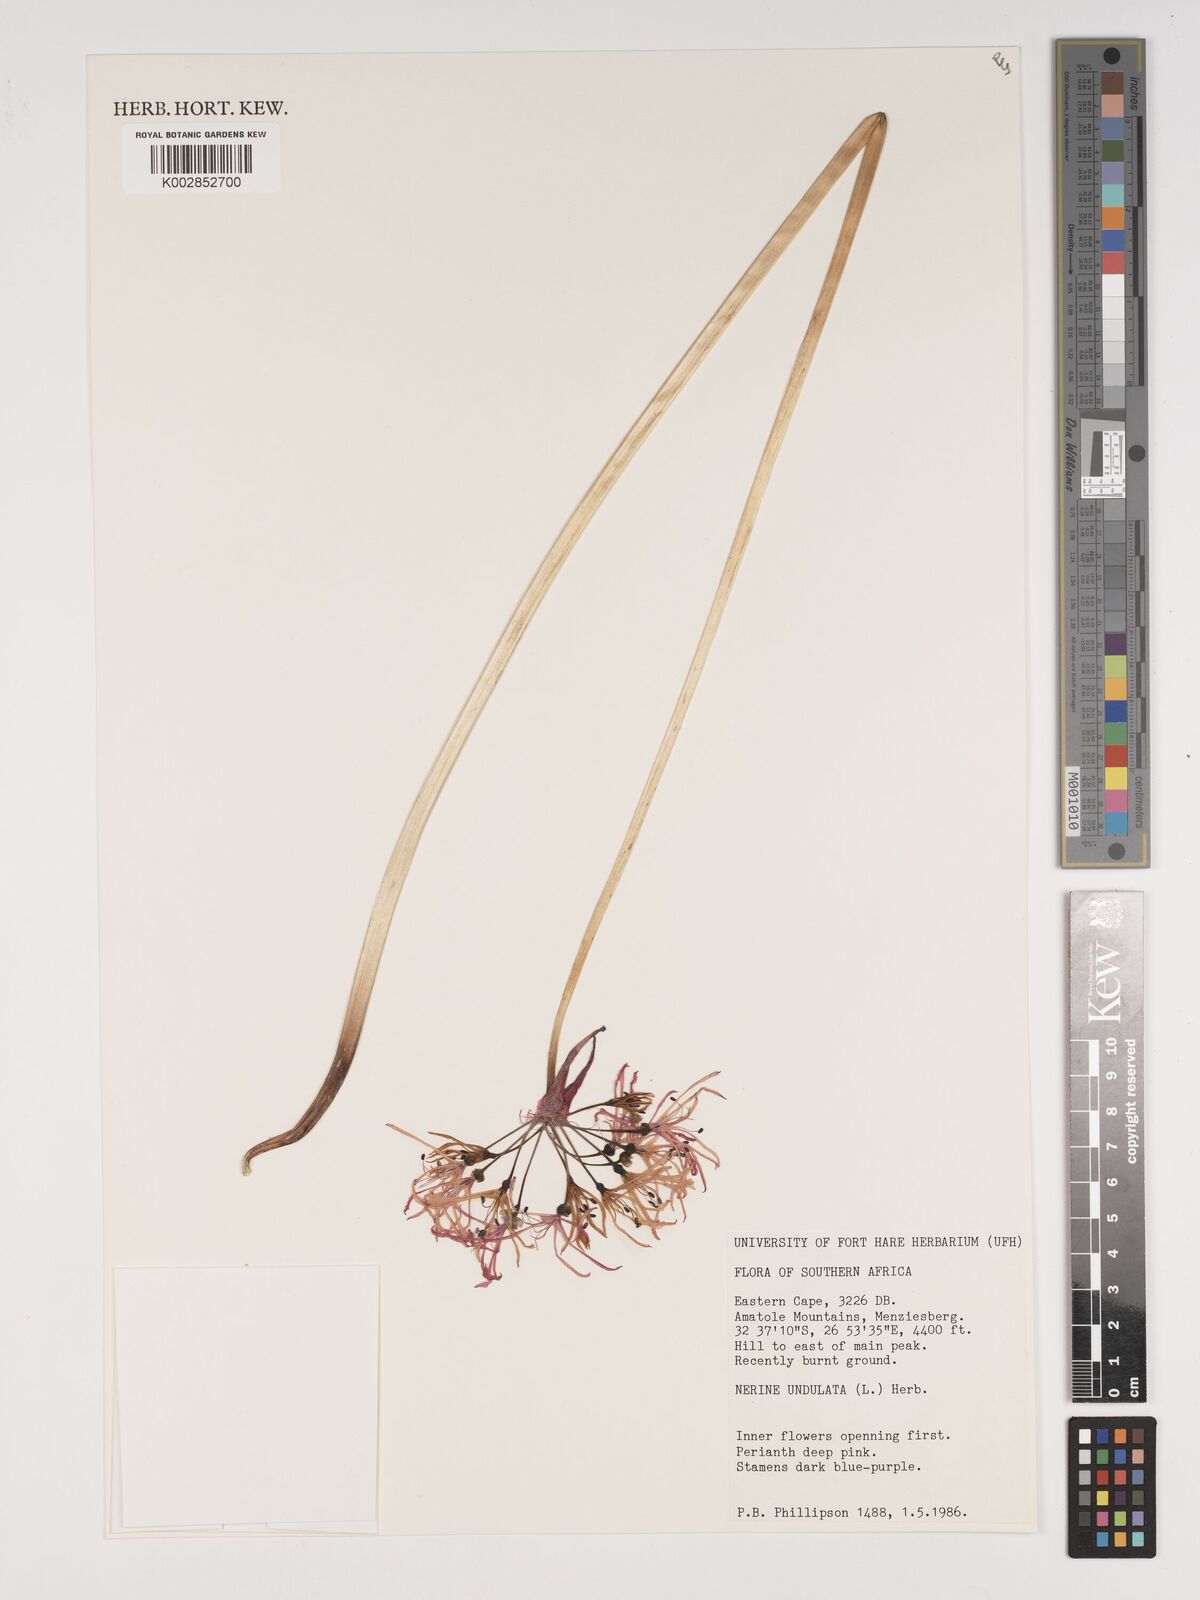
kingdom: Plantae
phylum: Tracheophyta
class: Liliopsida
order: Asparagales
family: Amaryllidaceae
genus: Nerine
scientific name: Nerine undulata
